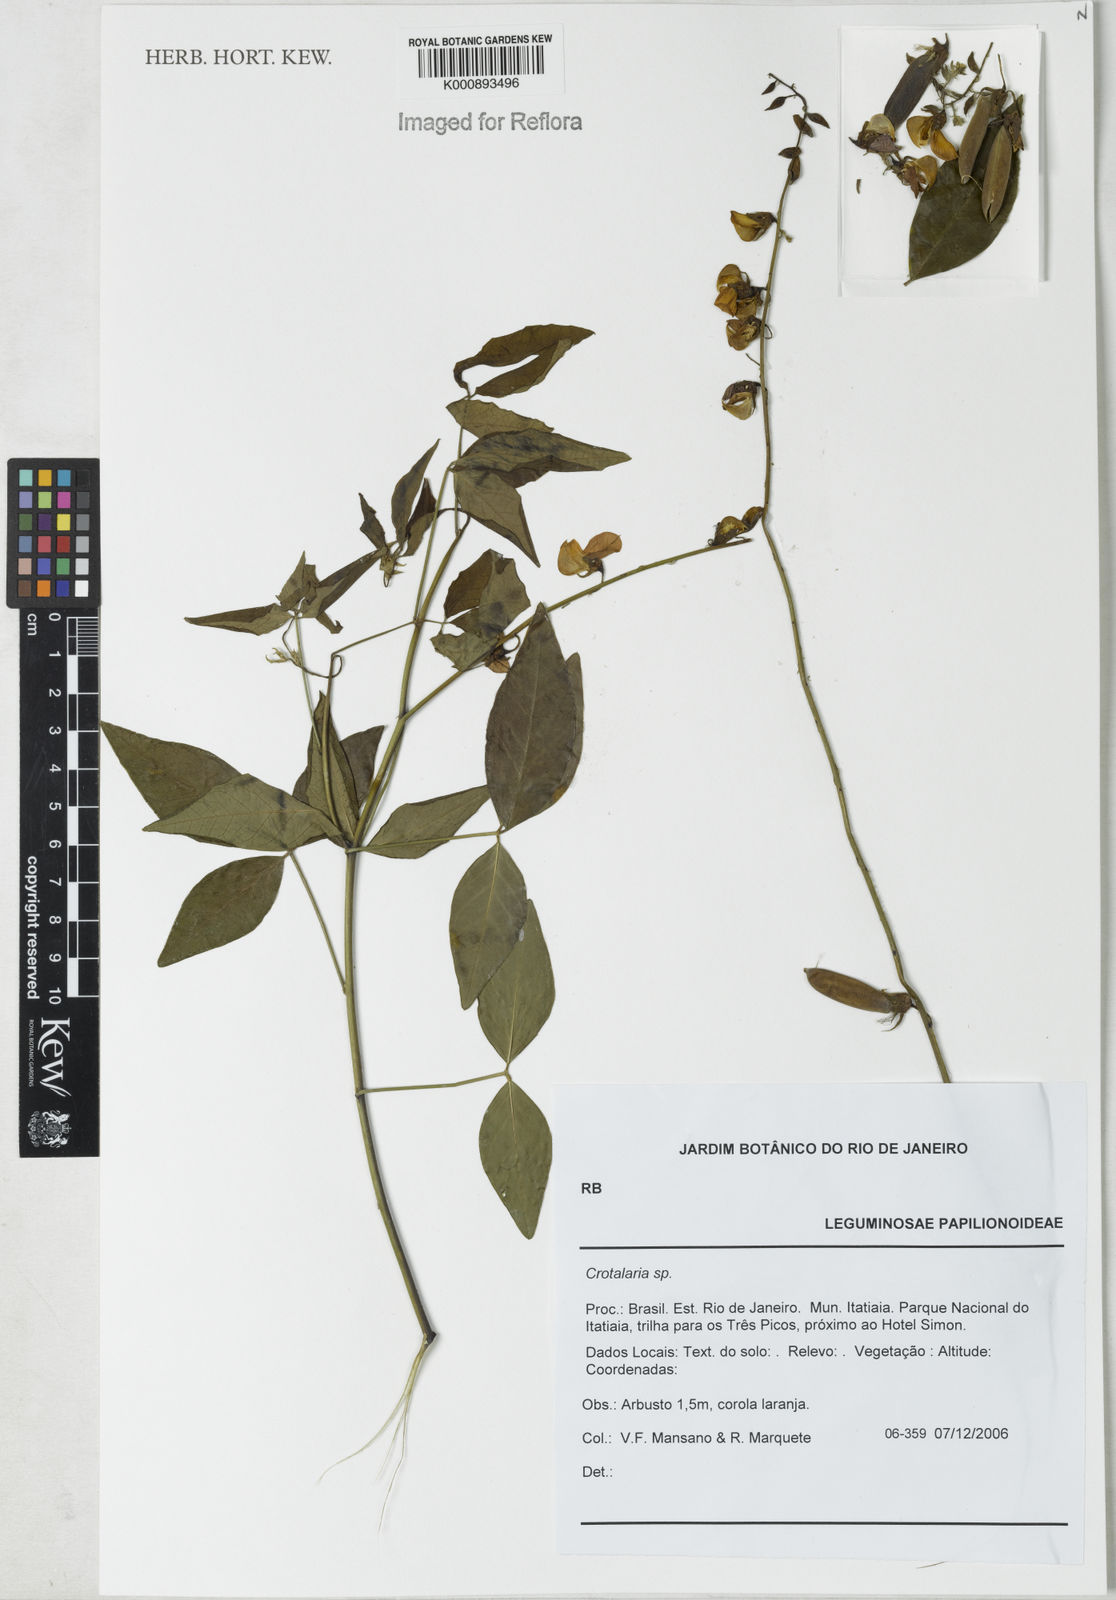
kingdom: Plantae
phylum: Tracheophyta
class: Magnoliopsida
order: Fabales
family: Fabaceae
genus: Crotalaria
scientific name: Crotalaria vitellina
